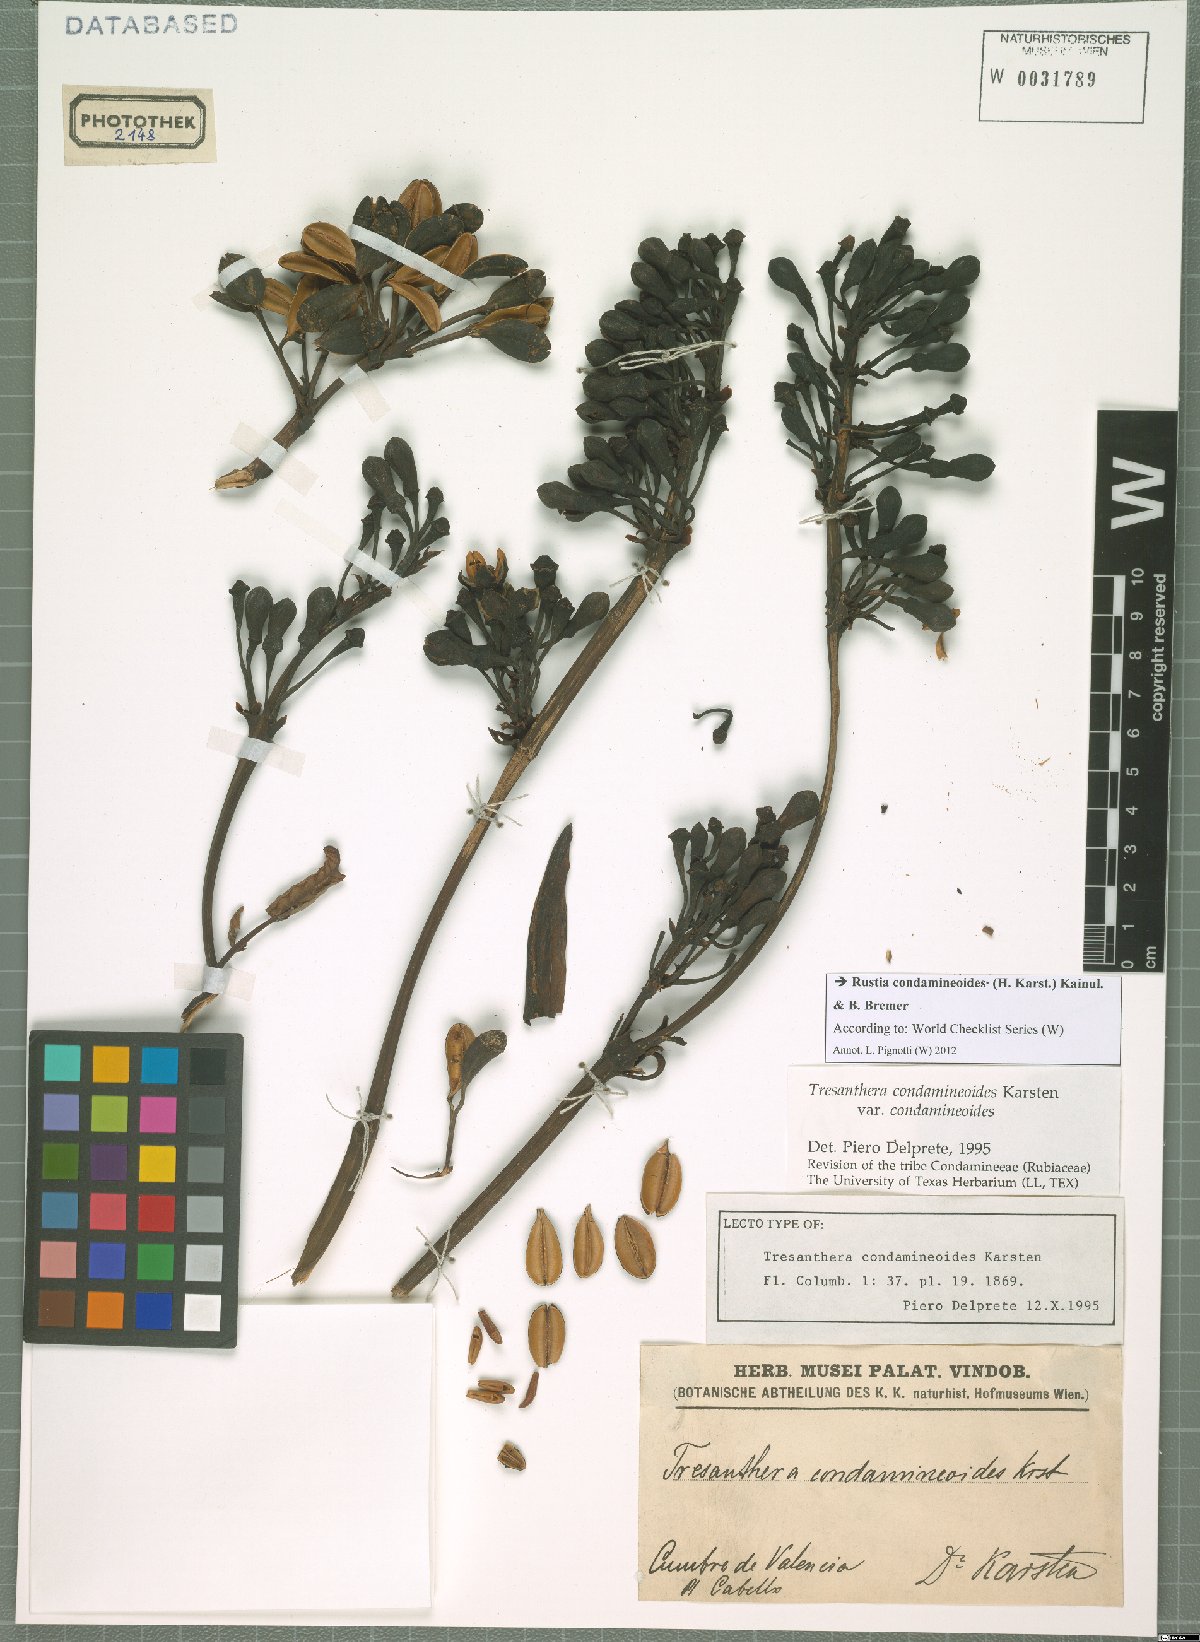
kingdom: Plantae
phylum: Tracheophyta
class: Magnoliopsida
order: Gentianales
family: Rubiaceae
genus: Rustia
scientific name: Rustia condamineoides
